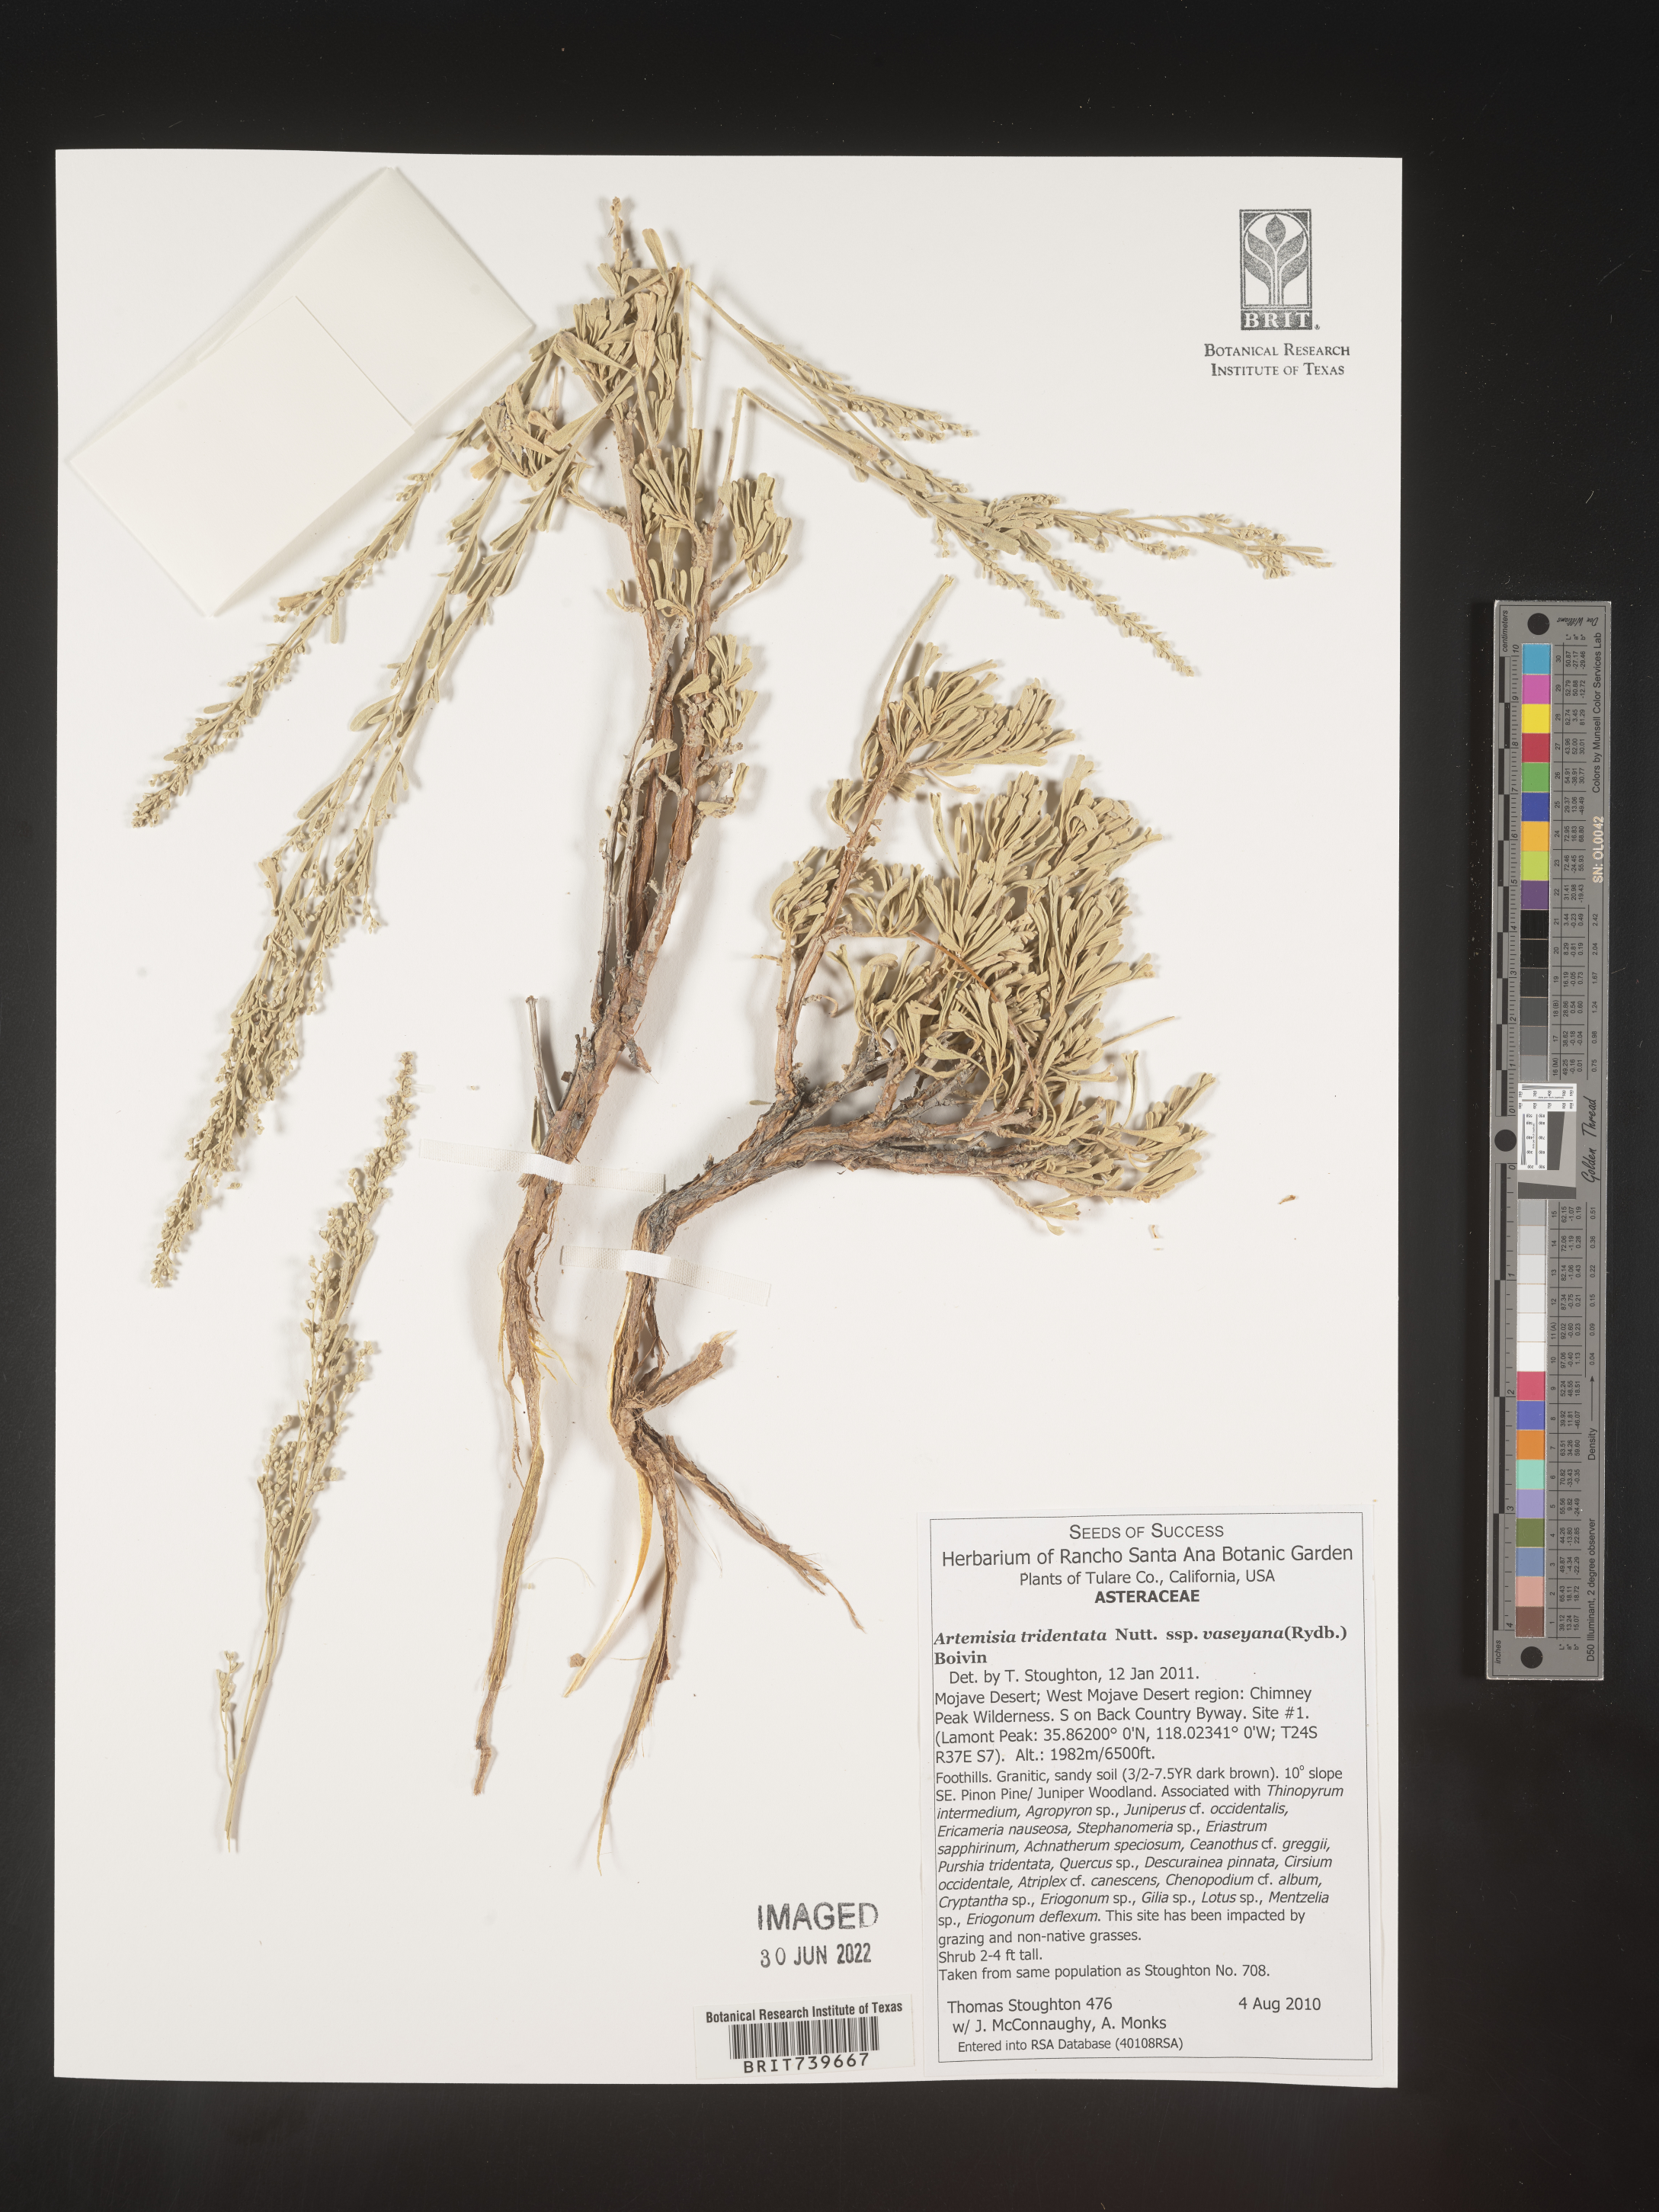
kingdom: Plantae
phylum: Tracheophyta
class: Magnoliopsida
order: Asterales
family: Asteraceae
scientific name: Asteraceae
